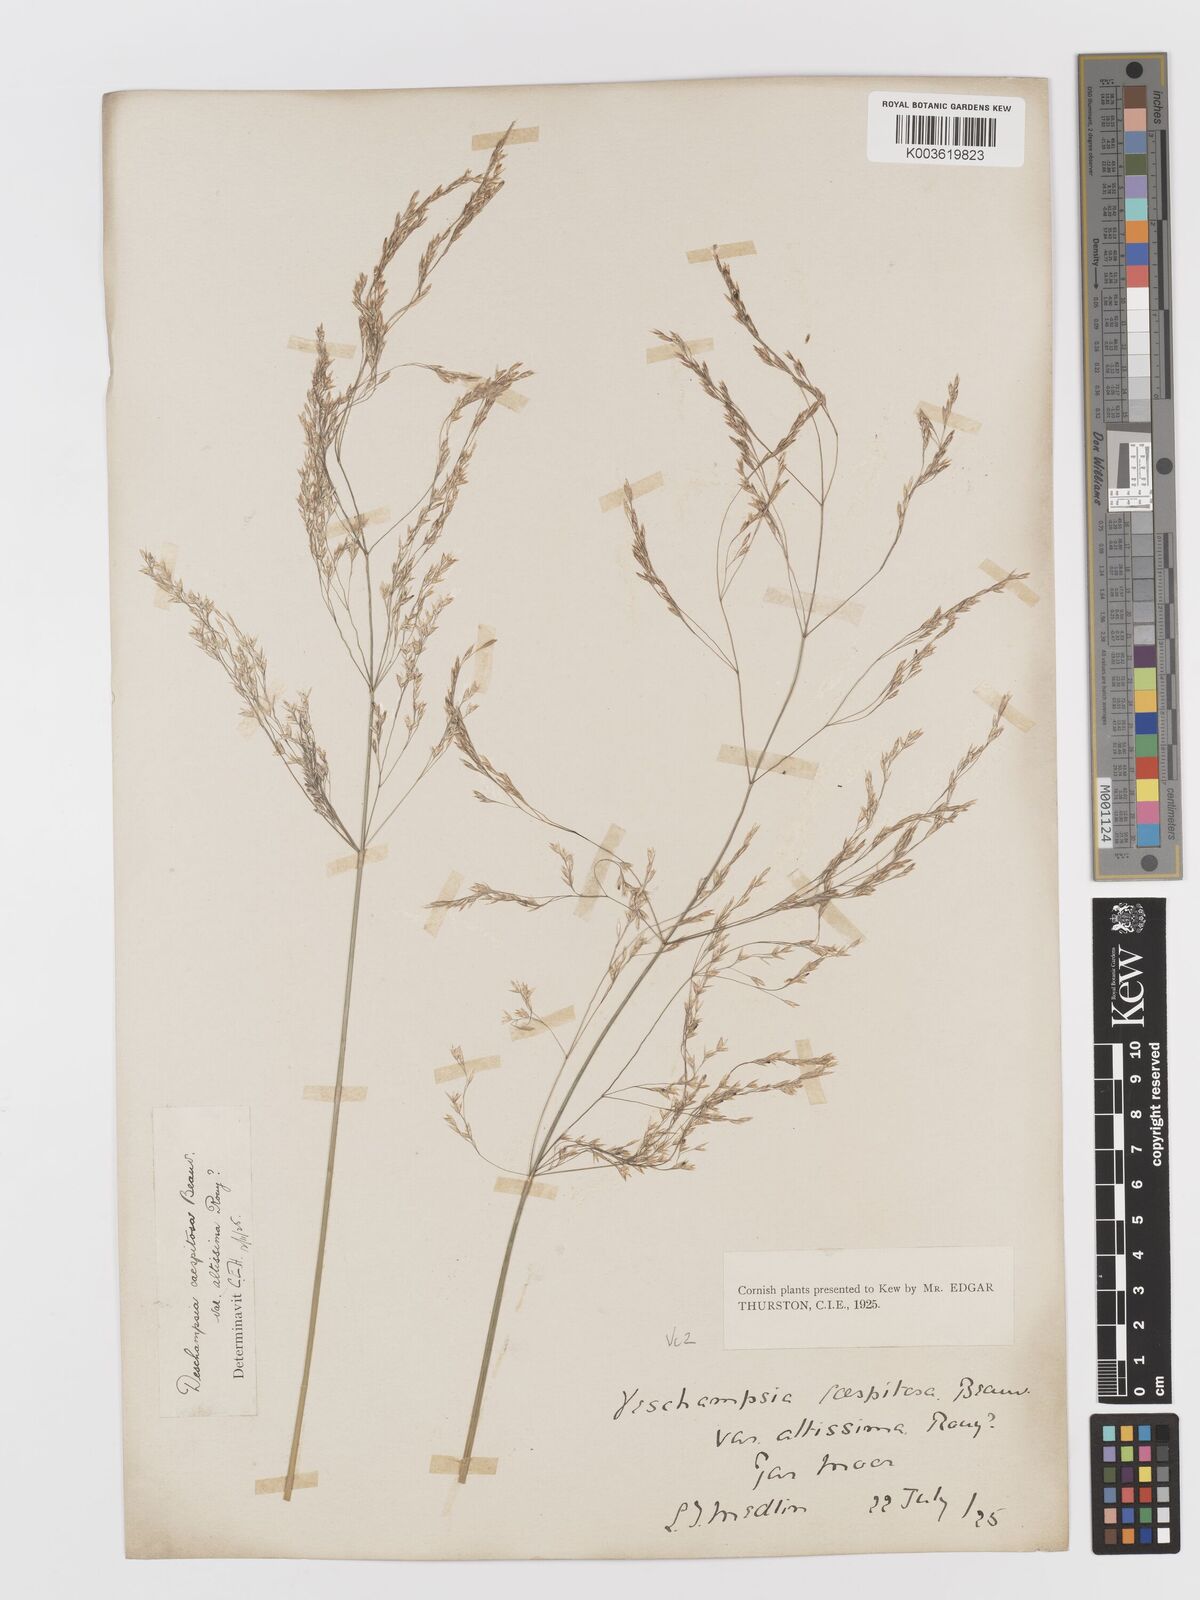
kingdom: Plantae
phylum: Tracheophyta
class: Liliopsida
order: Poales
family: Poaceae
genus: Deschampsia
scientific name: Deschampsia cespitosa
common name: Tufted hair-grass
